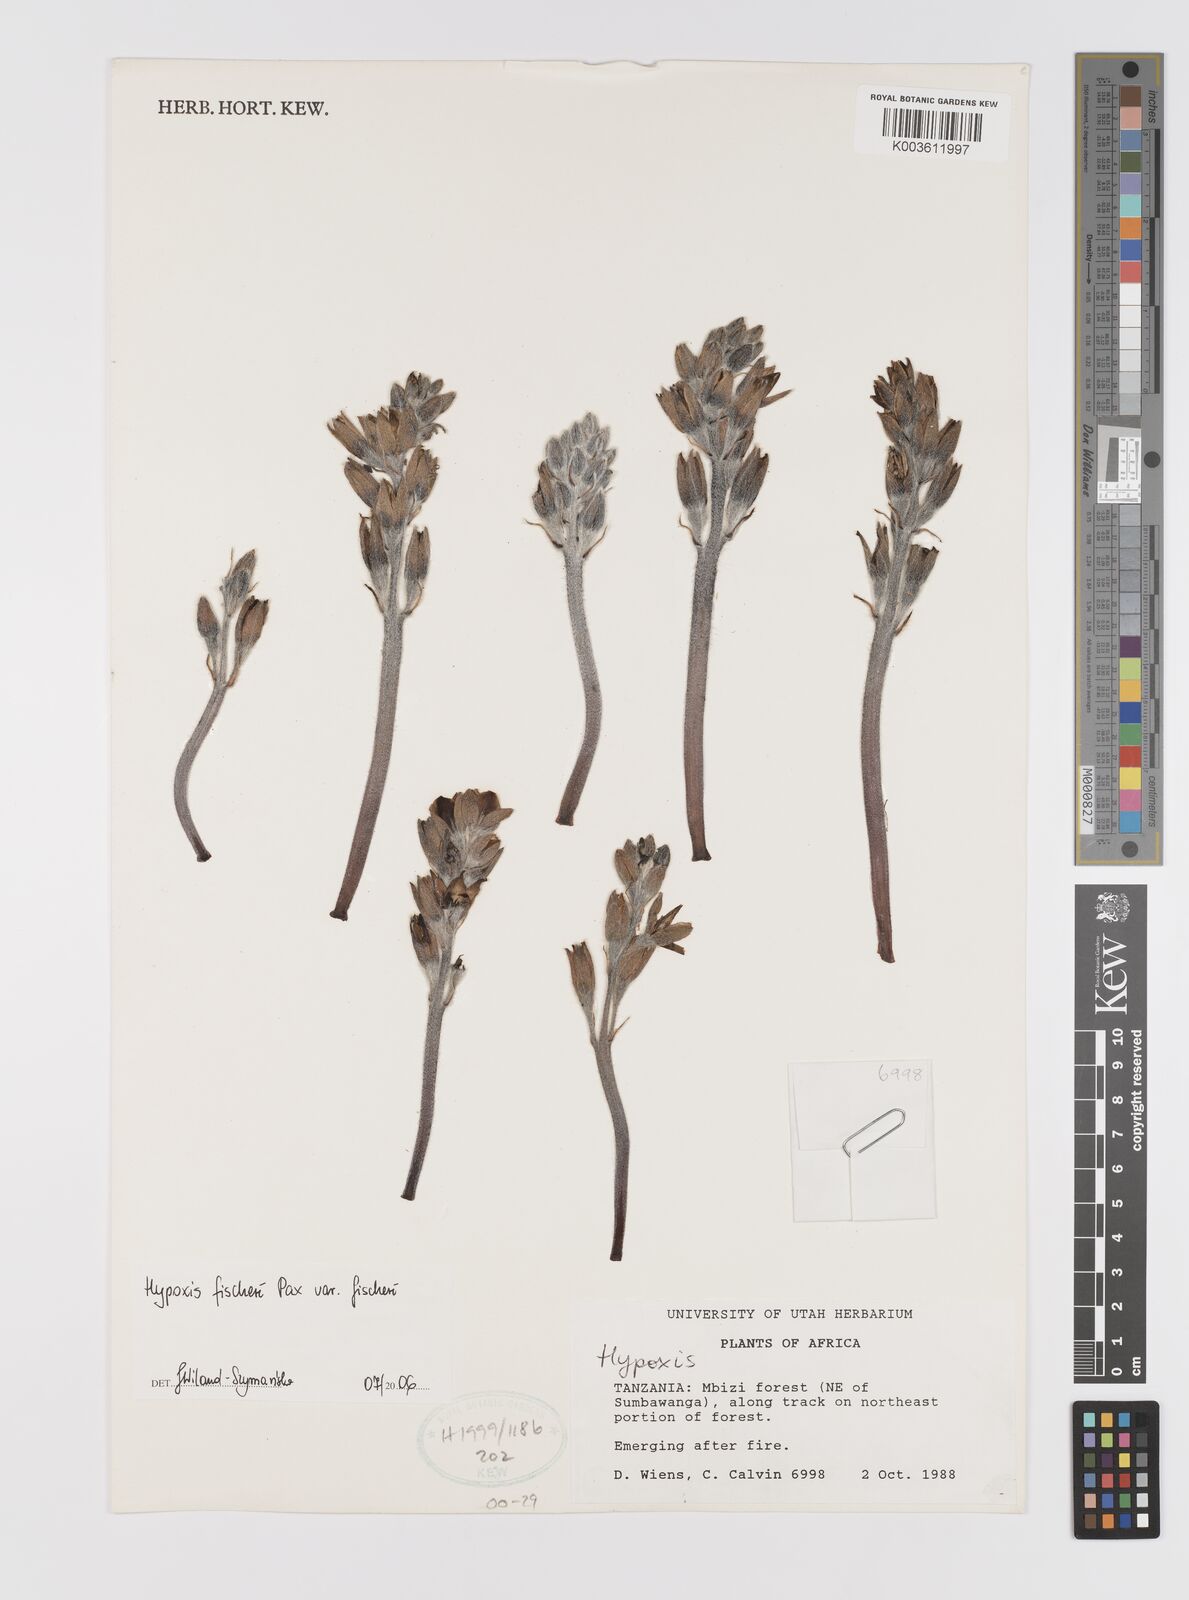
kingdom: Plantae
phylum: Tracheophyta
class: Liliopsida
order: Asparagales
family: Hypoxidaceae
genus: Hypoxis
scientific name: Hypoxis fischeri
